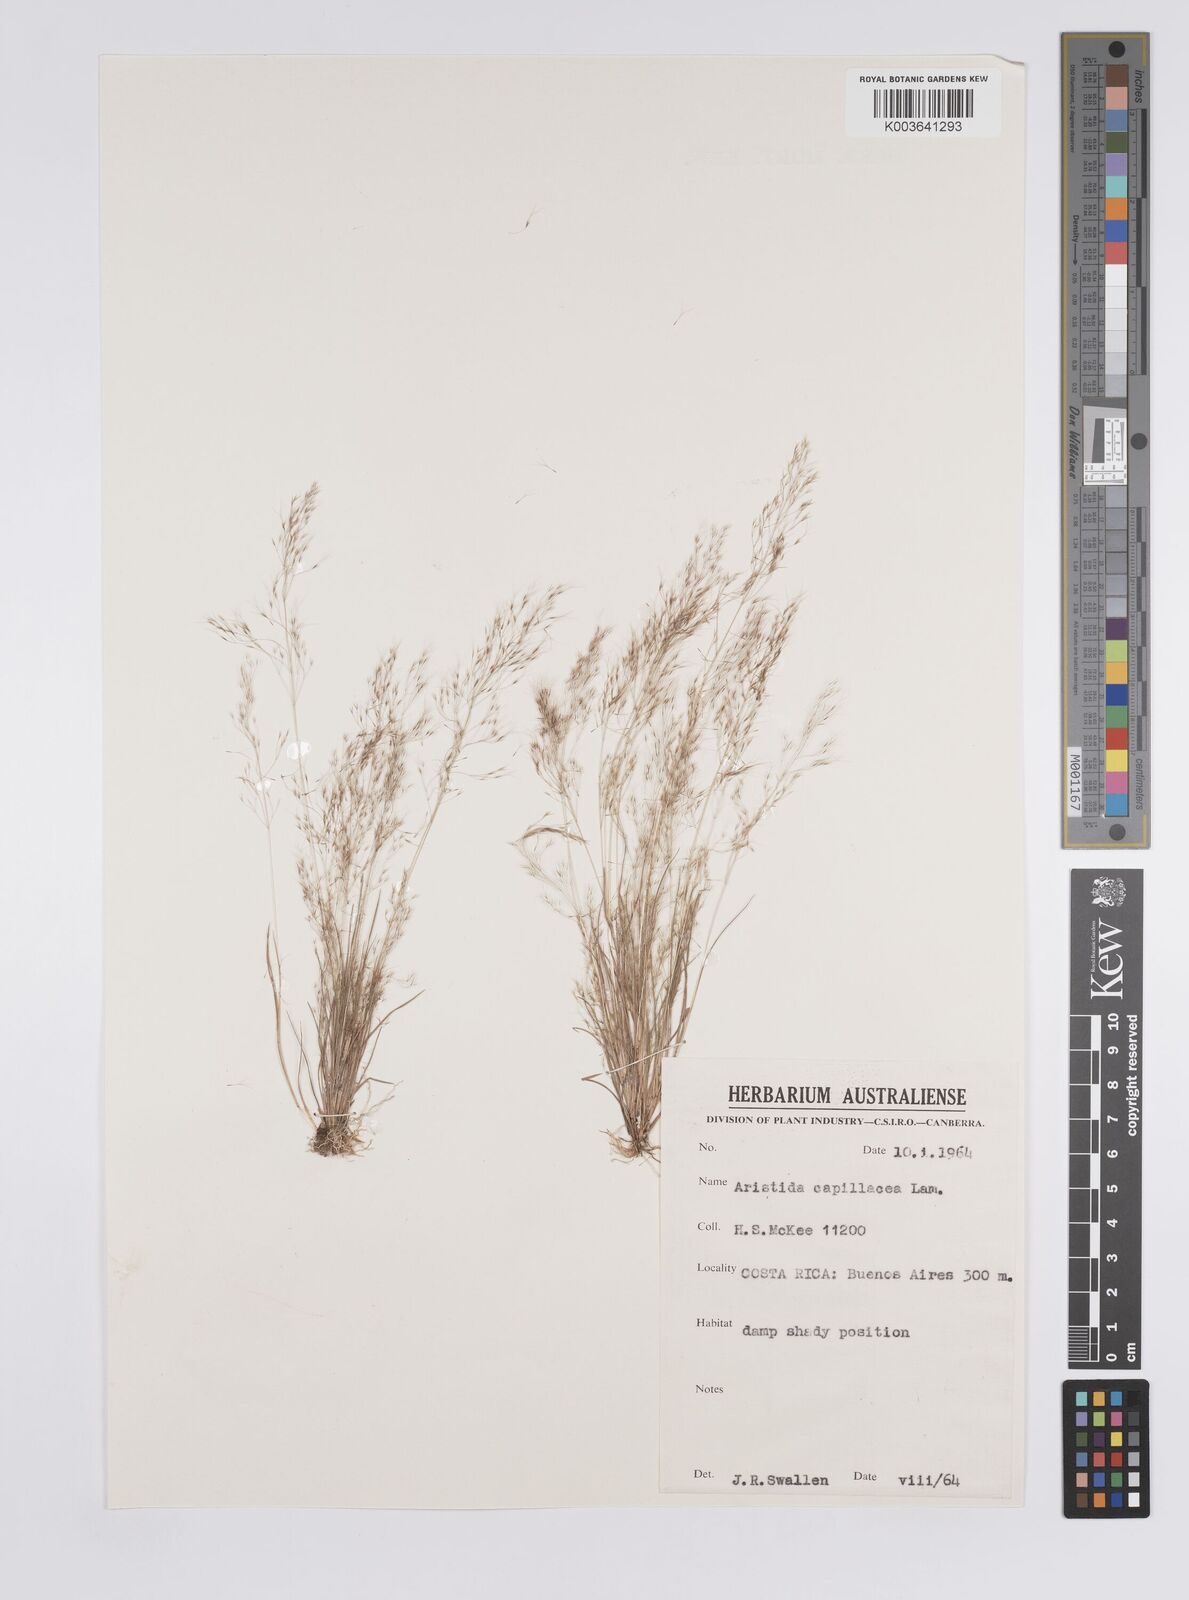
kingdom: Plantae
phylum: Tracheophyta
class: Liliopsida
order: Poales
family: Poaceae
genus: Aristida
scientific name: Aristida
